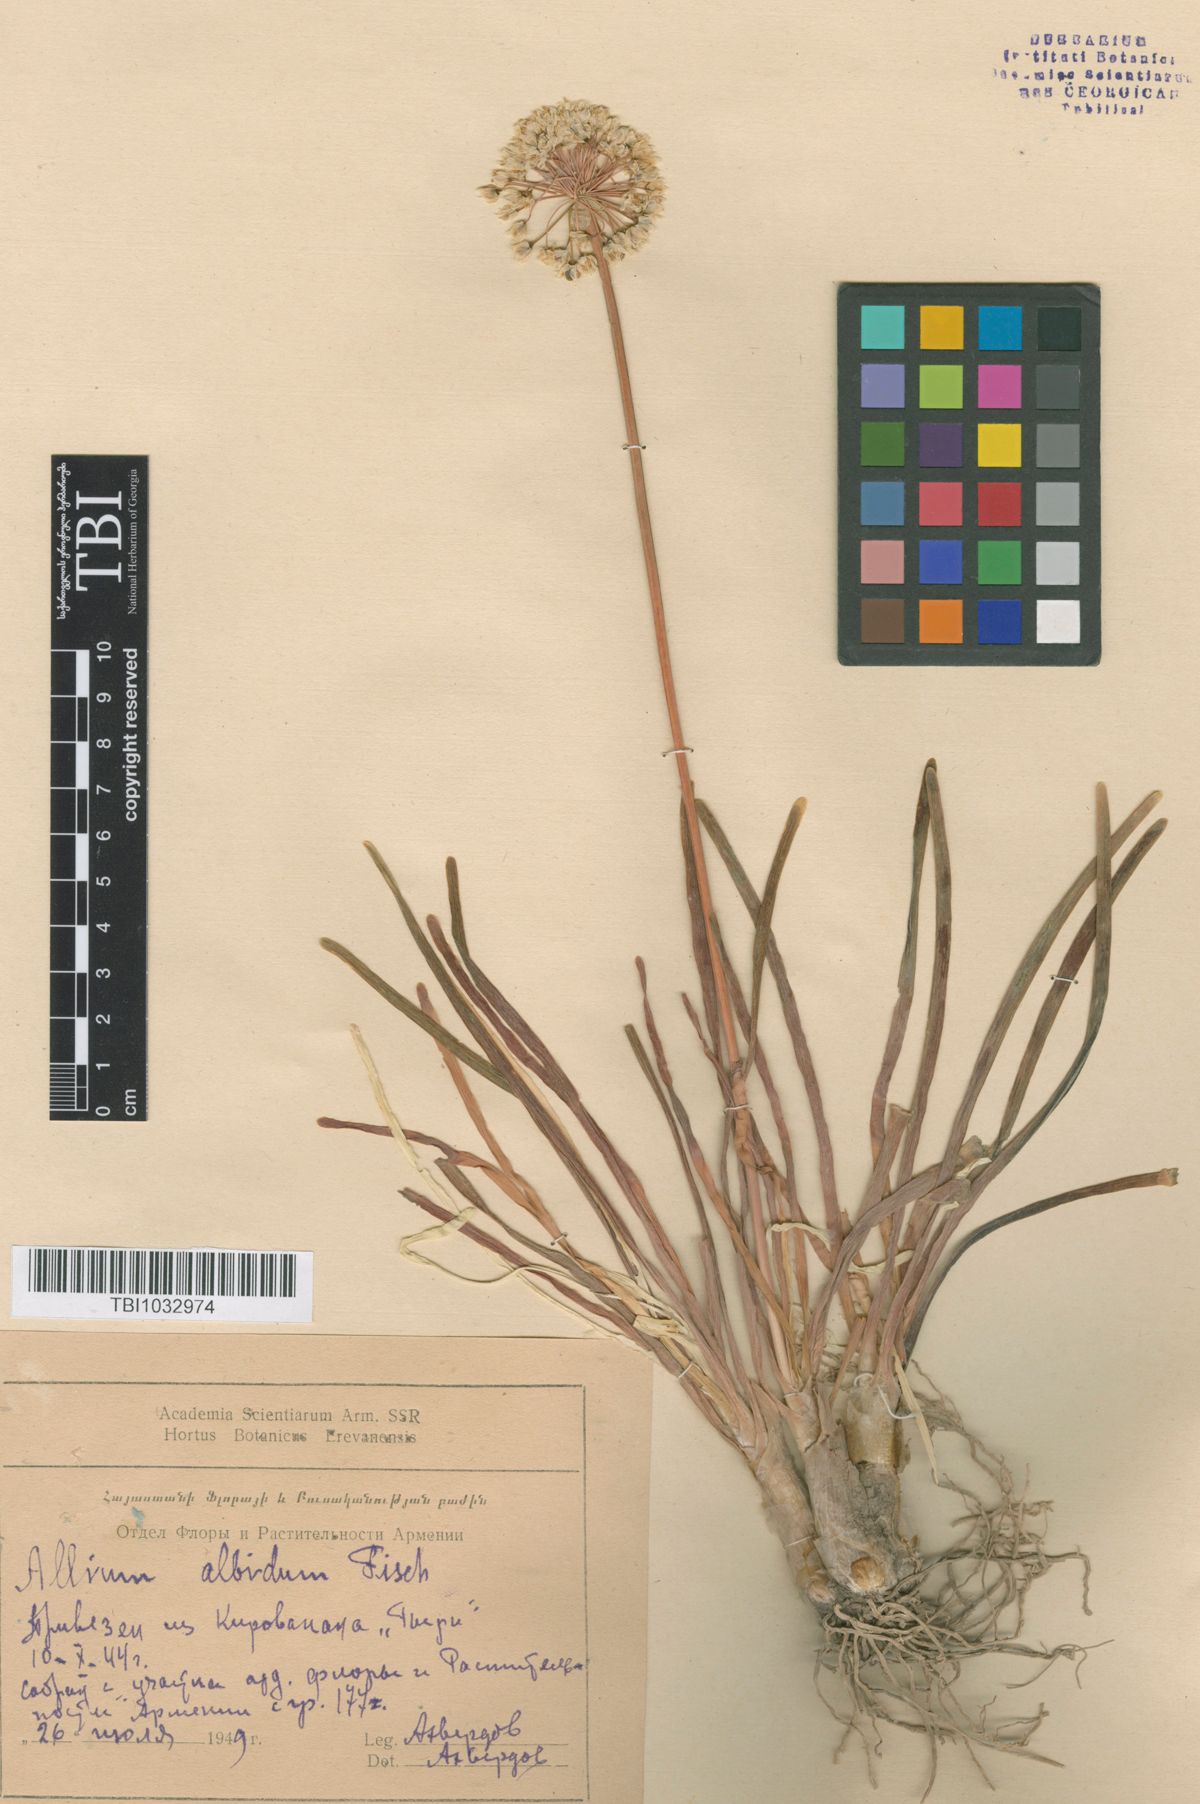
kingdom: Plantae
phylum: Tracheophyta
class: Liliopsida
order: Asparagales
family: Amaryllidaceae
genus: Allium
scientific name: Allium denudatum
